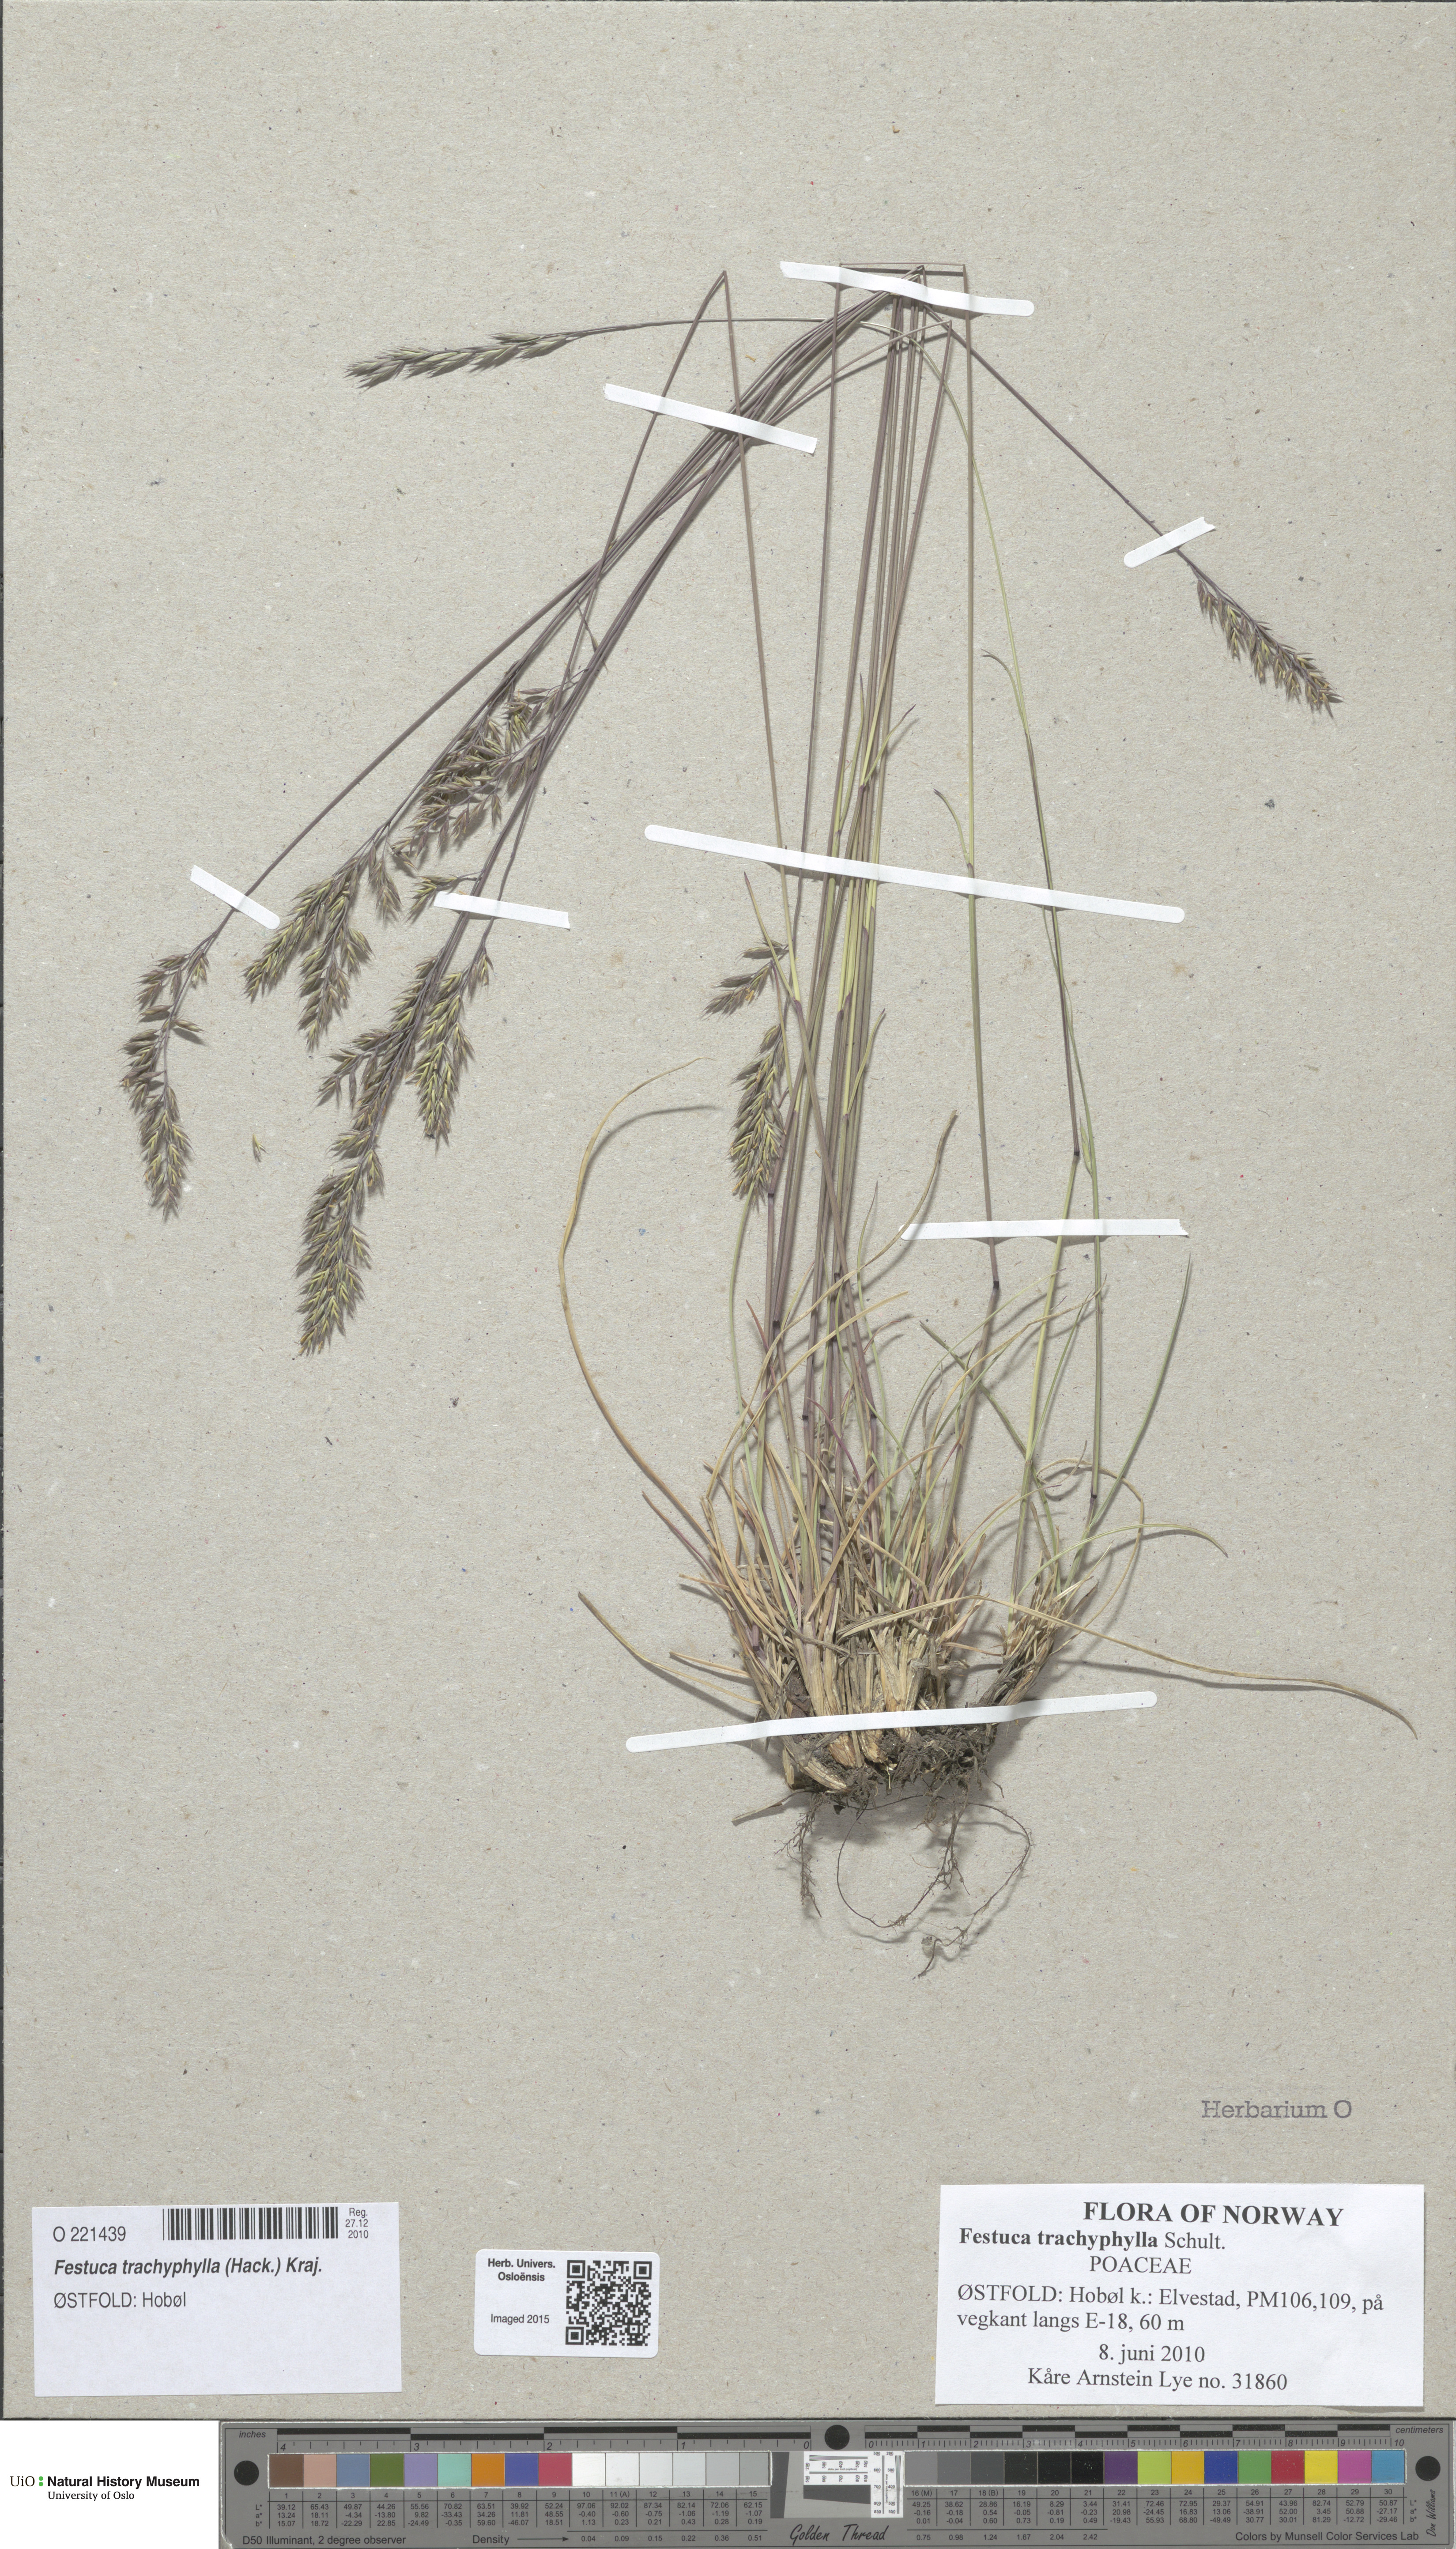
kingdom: Plantae
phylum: Tracheophyta
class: Liliopsida
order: Poales
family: Poaceae
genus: Festuca
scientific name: Festuca trachyphylla
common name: Hard fescue
